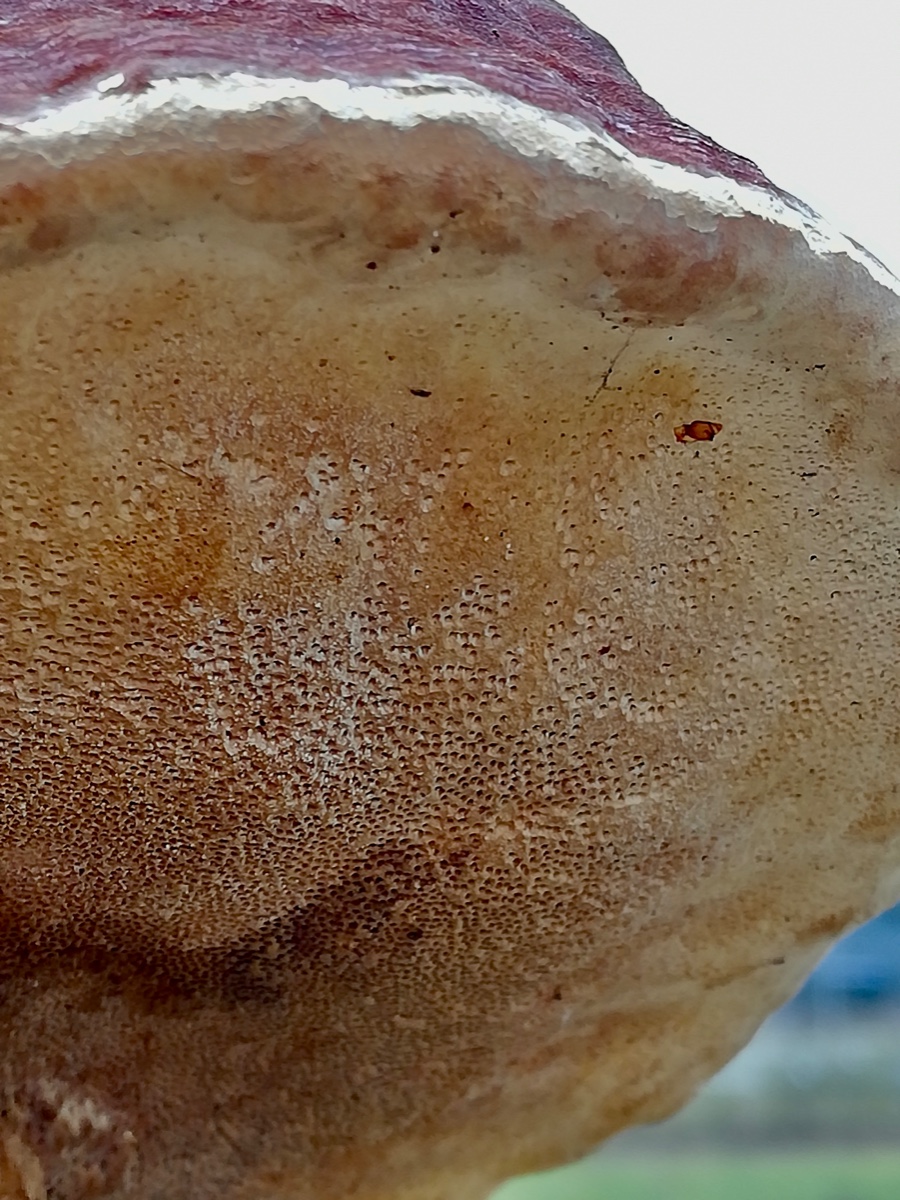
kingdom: Fungi
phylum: Basidiomycota
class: Agaricomycetes
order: Polyporales
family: Fomitopsidaceae
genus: Fomitopsis
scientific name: Fomitopsis pinicola
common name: randbæltet hovporesvamp
